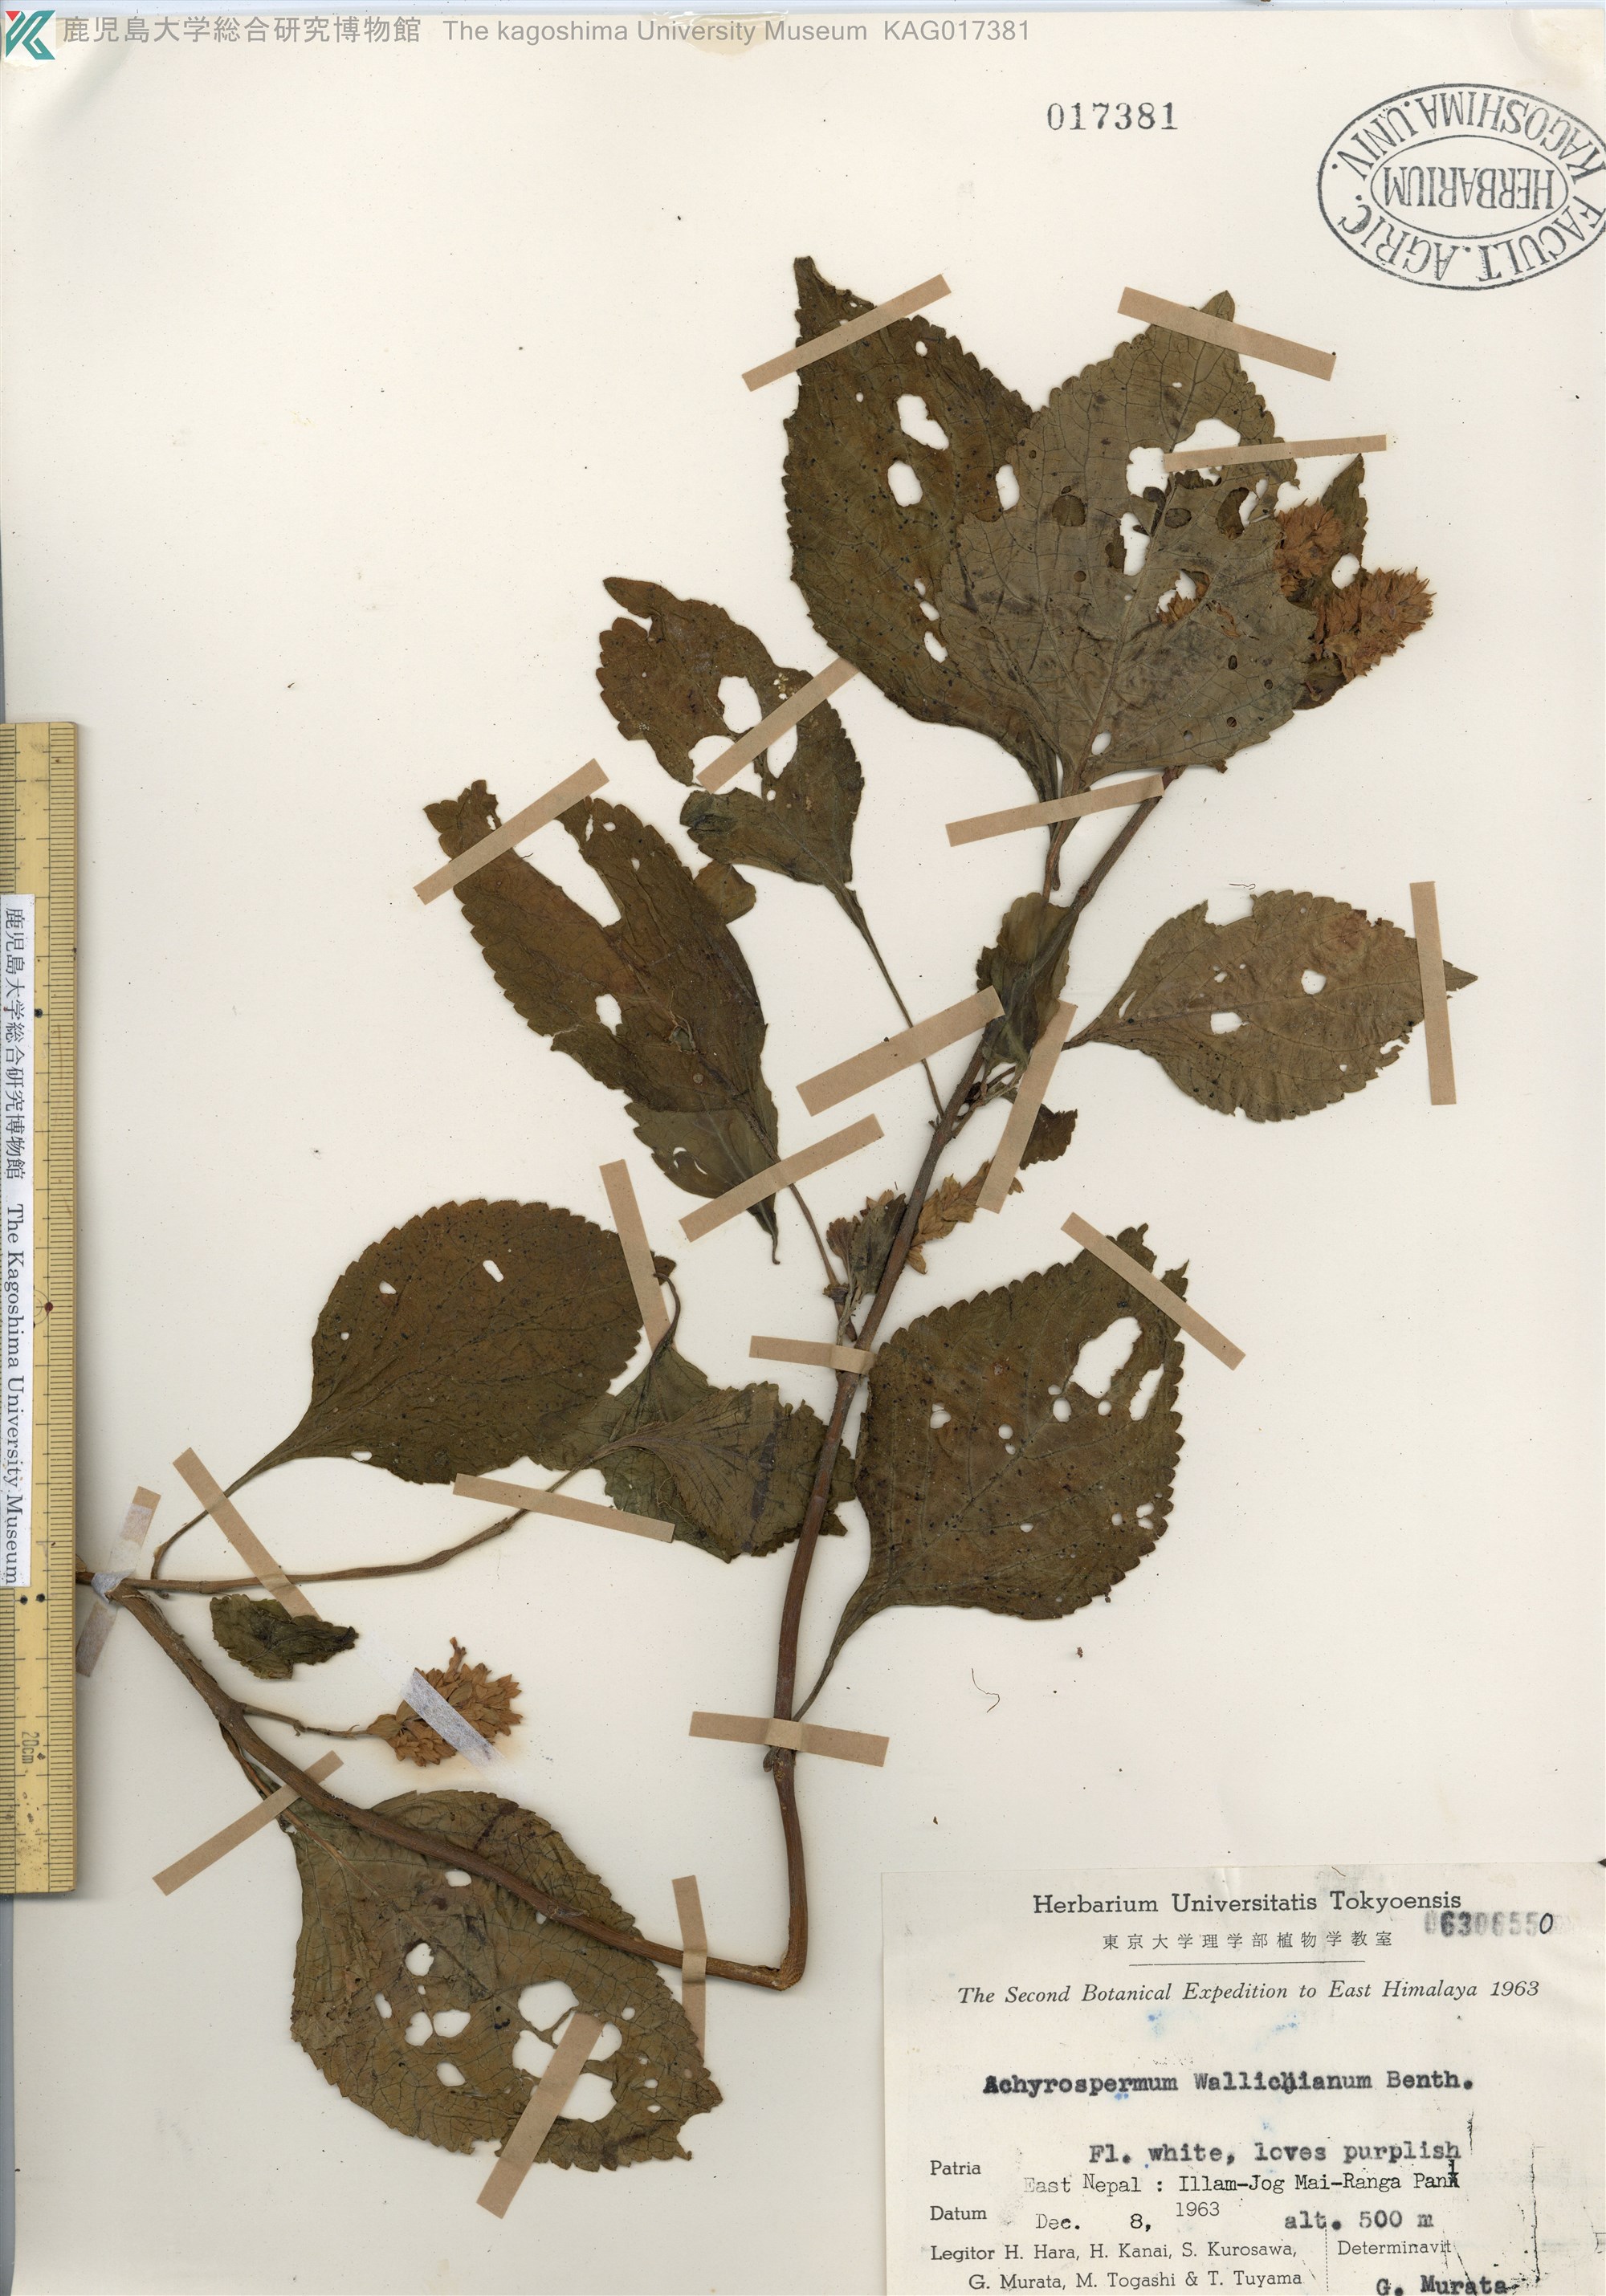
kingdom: Plantae
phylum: Tracheophyta
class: Magnoliopsida
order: Lamiales
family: Lamiaceae
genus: Achyrospermum
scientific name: Achyrospermum densiflorum
